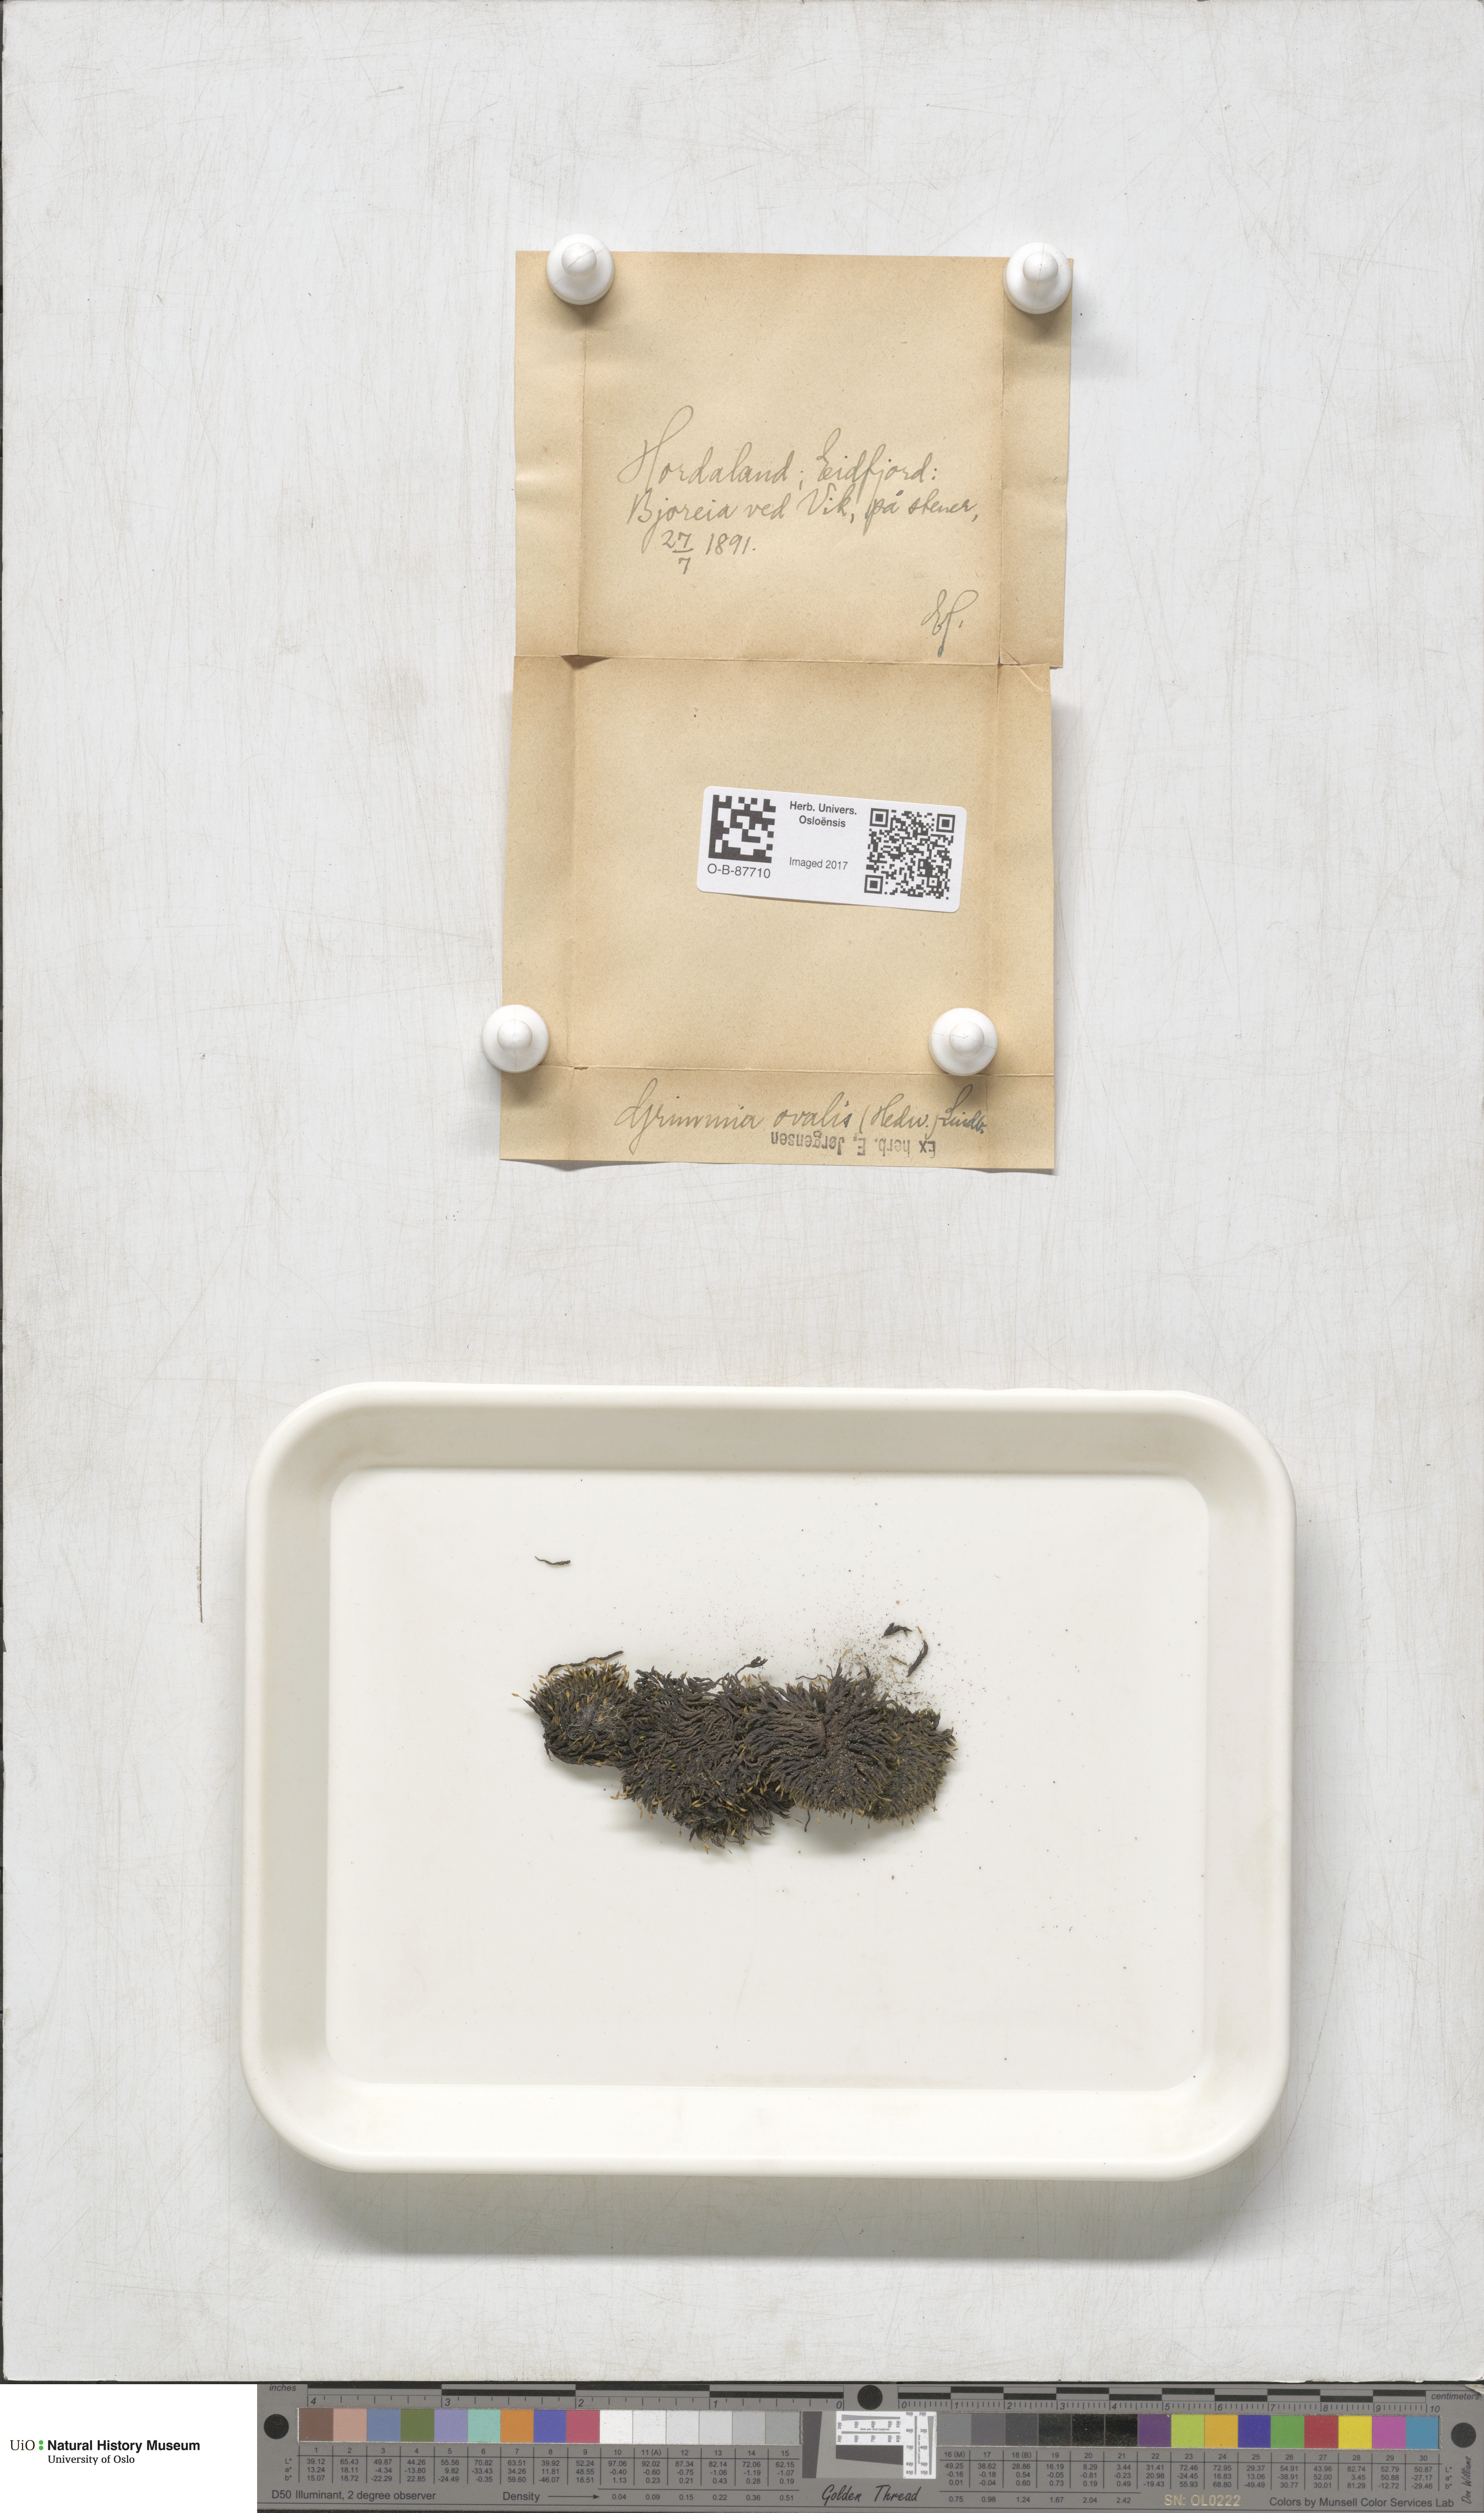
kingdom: Plantae
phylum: Bryophyta
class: Bryopsida
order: Grimmiales
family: Grimmiaceae
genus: Grimmia
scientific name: Grimmia ovalis
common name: Oval grimmia
